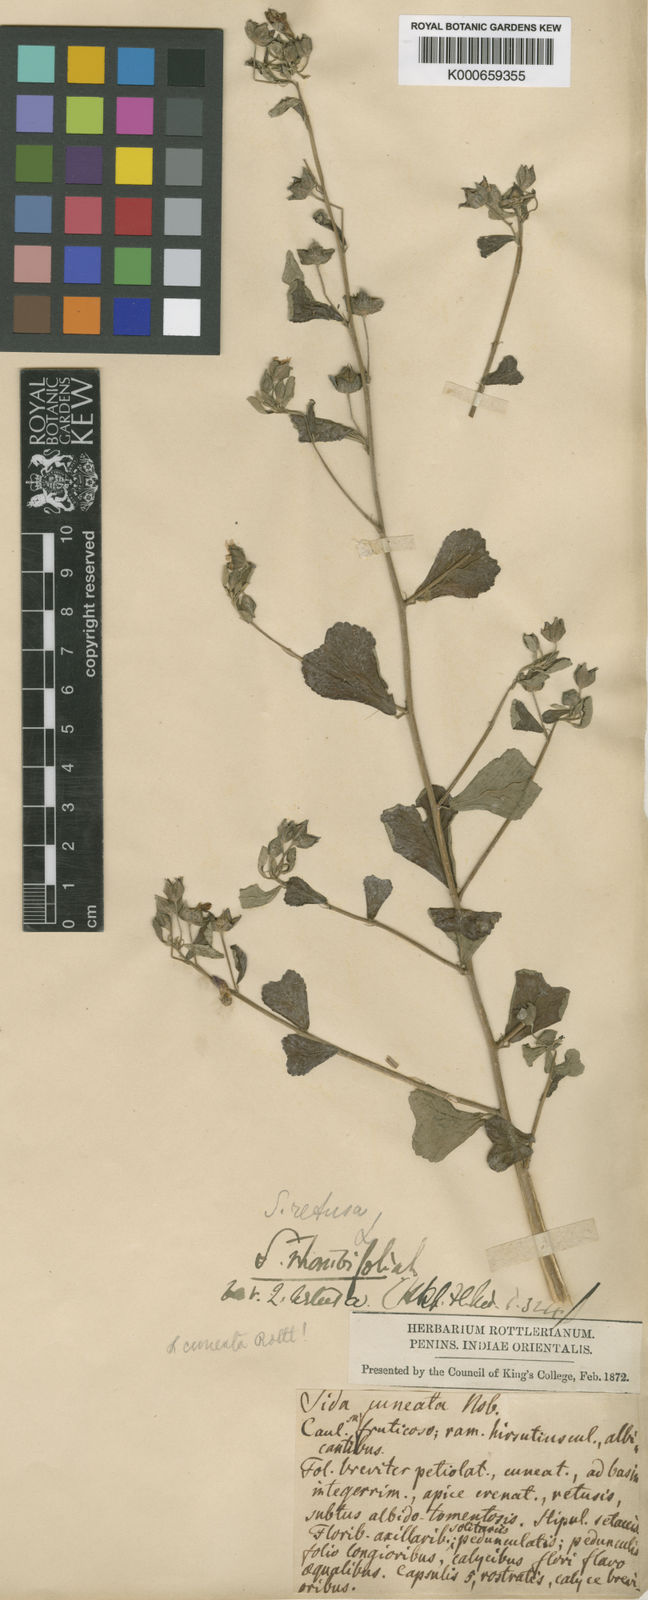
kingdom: Plantae
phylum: Tracheophyta
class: Magnoliopsida
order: Malvales
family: Malvaceae
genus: Sida
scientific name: Sida rhombifolia
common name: Queensland-hemp
